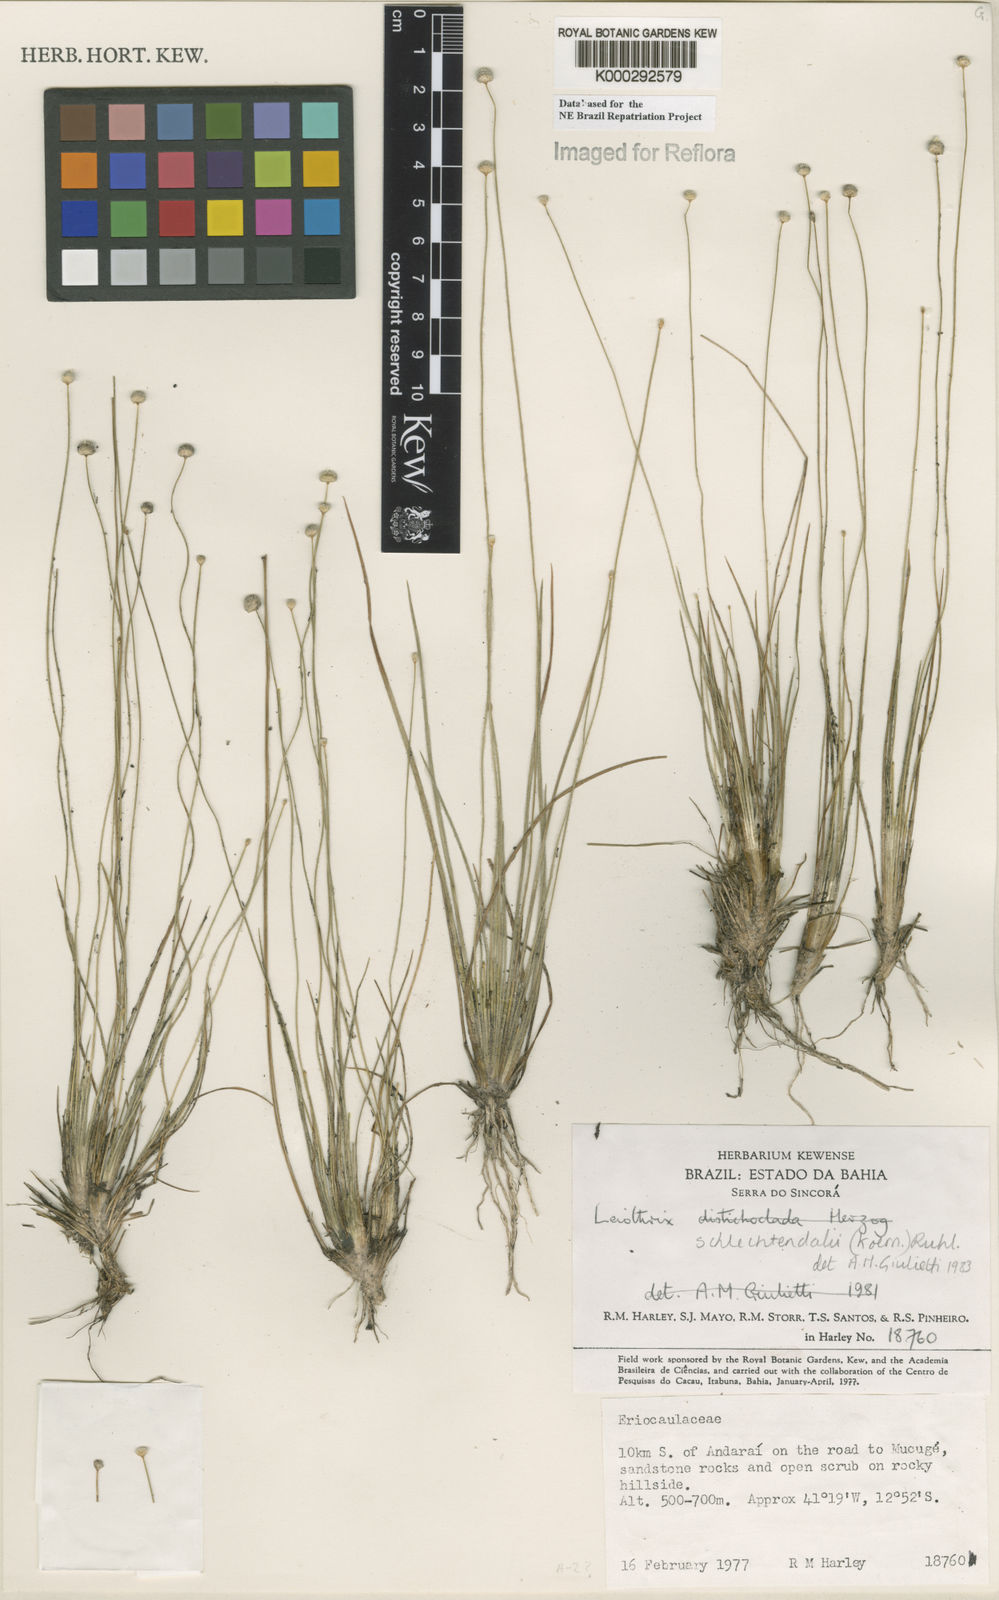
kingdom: Plantae
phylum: Tracheophyta
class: Liliopsida
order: Poales
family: Eriocaulaceae
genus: Leiothrix
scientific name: Leiothrix schlechtendalii
